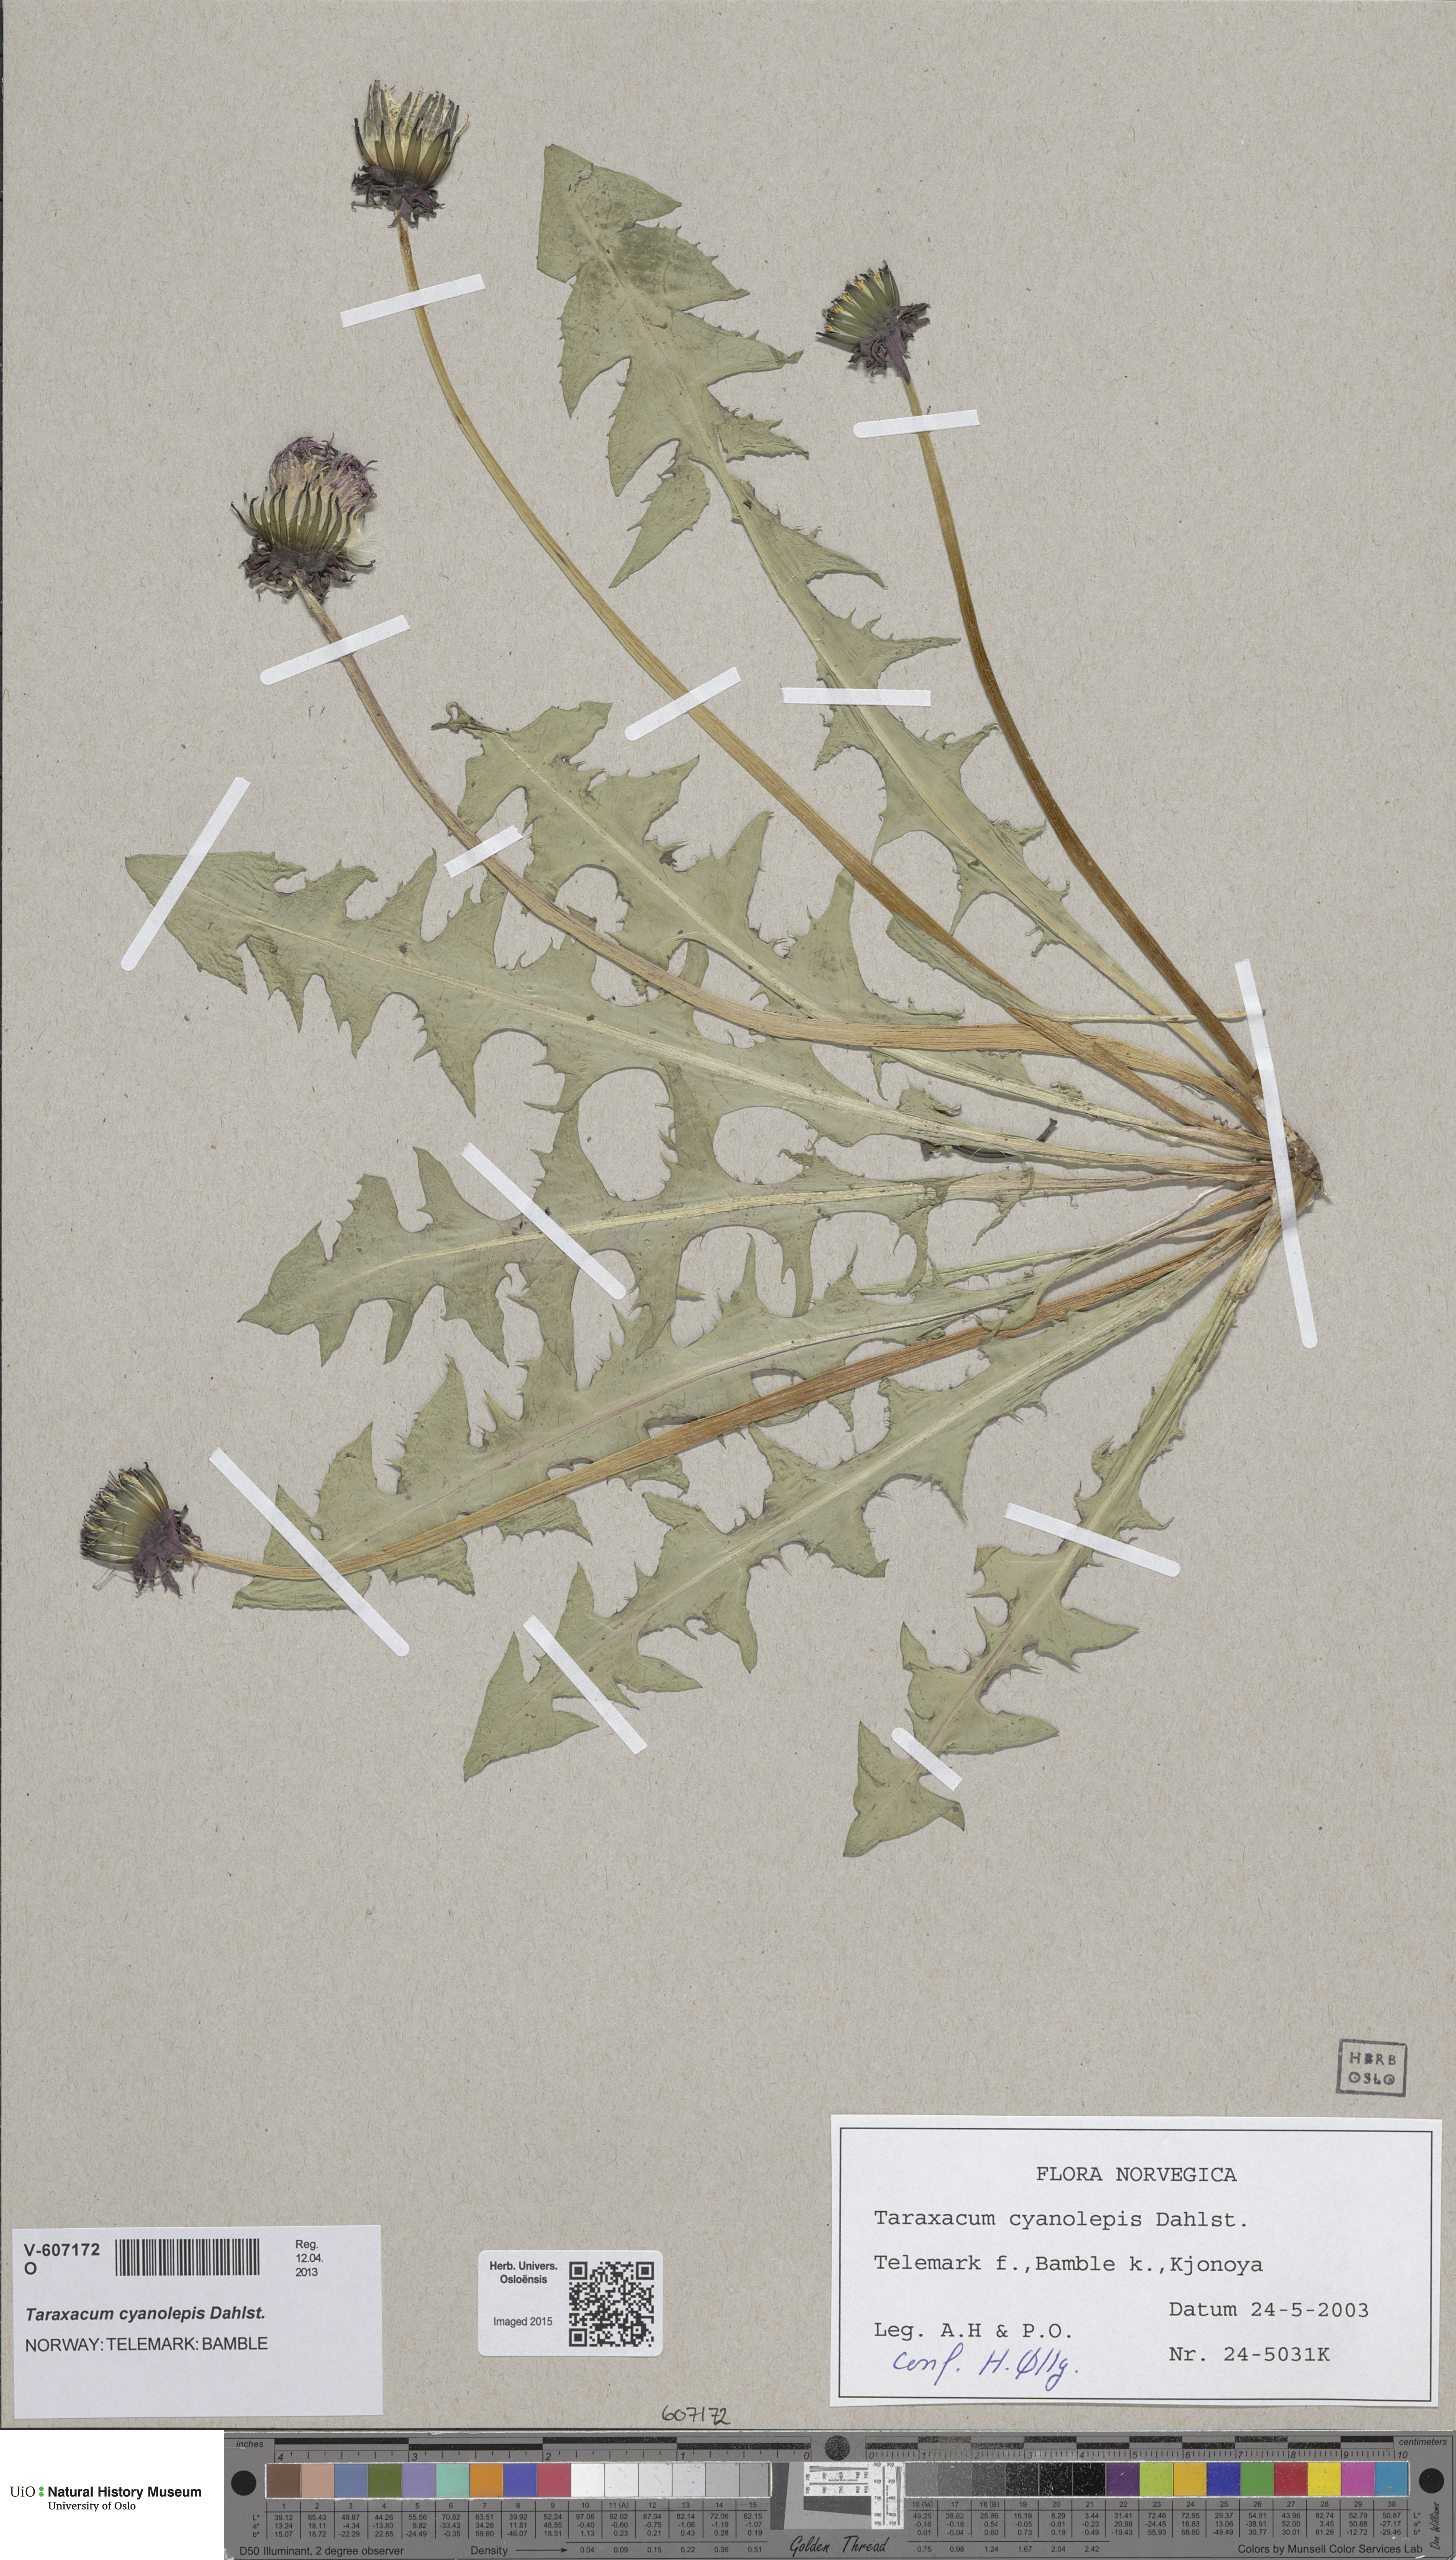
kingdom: Plantae
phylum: Tracheophyta
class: Magnoliopsida
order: Asterales
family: Asteraceae
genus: Taraxacum
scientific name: Taraxacum cyanolepis
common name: Bluish-bracted dandelion
